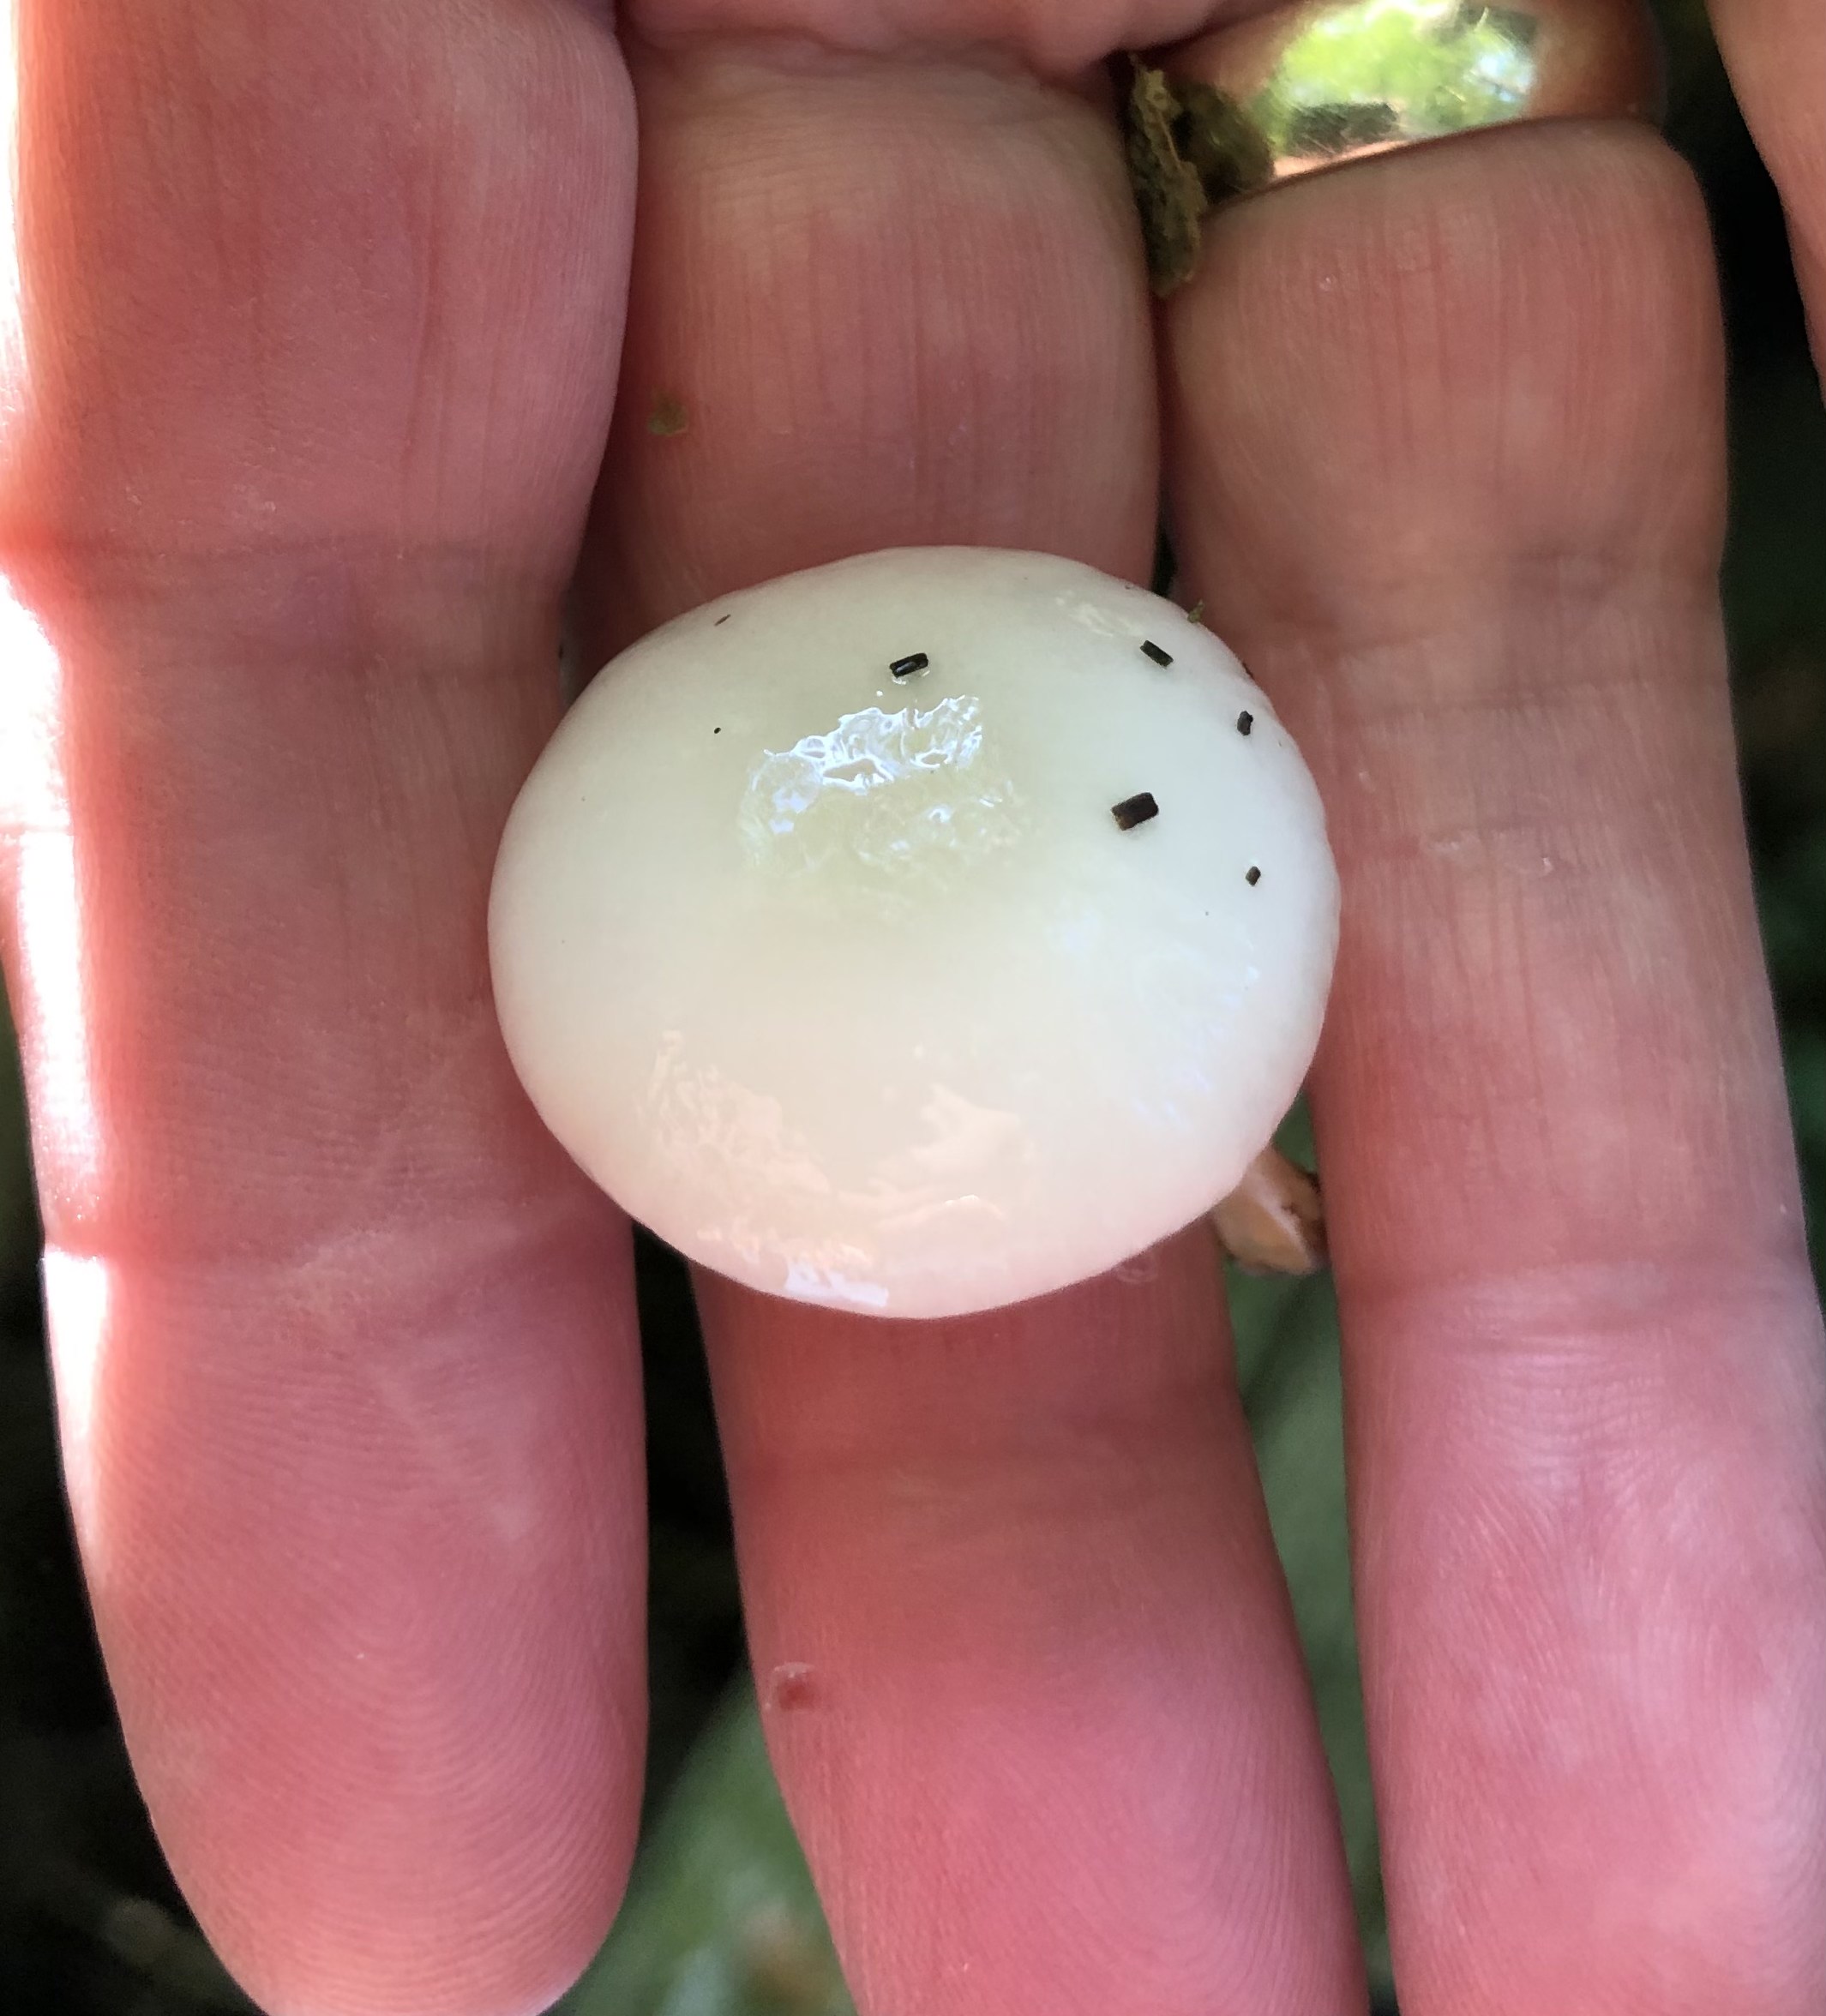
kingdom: Fungi
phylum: Basidiomycota
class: Agaricomycetes
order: Agaricales
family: Physalacriaceae
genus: Mucidula
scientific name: Mucidula mucida
